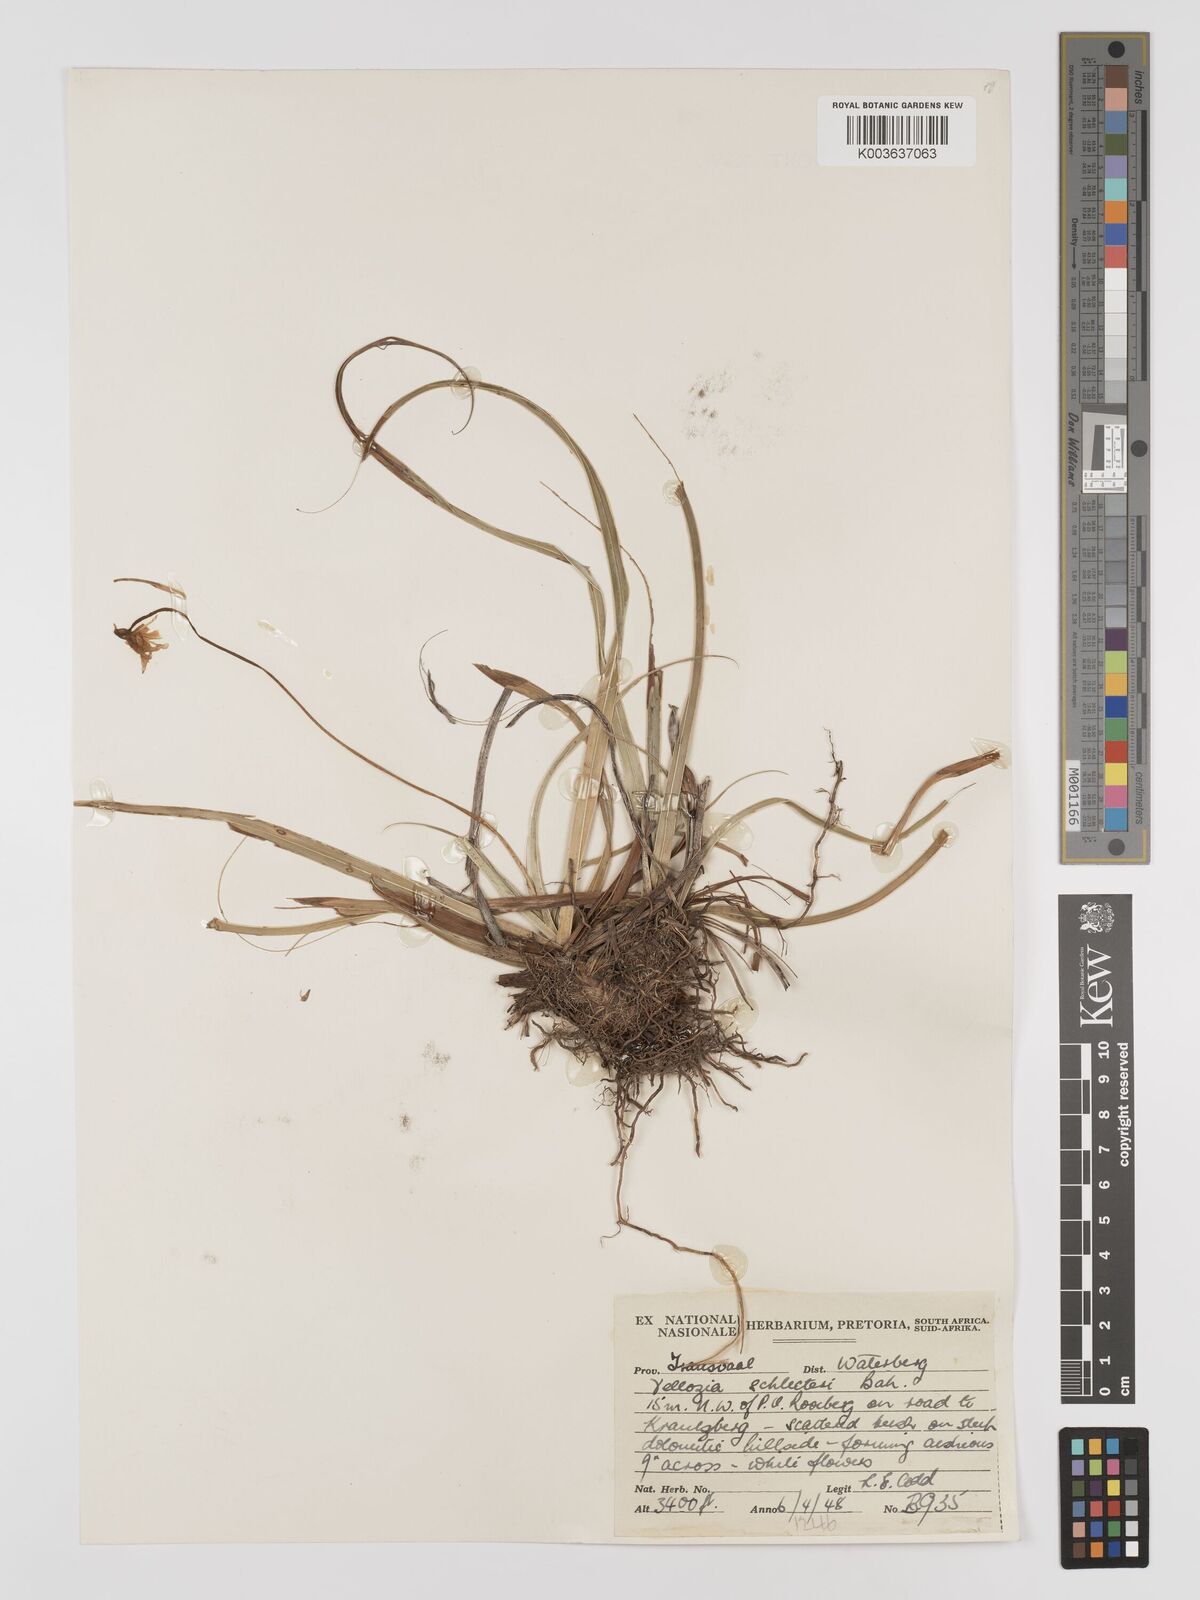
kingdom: Plantae
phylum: Tracheophyta
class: Liliopsida
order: Pandanales
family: Velloziaceae
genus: Xerophyta
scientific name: Xerophyta schlechteri
